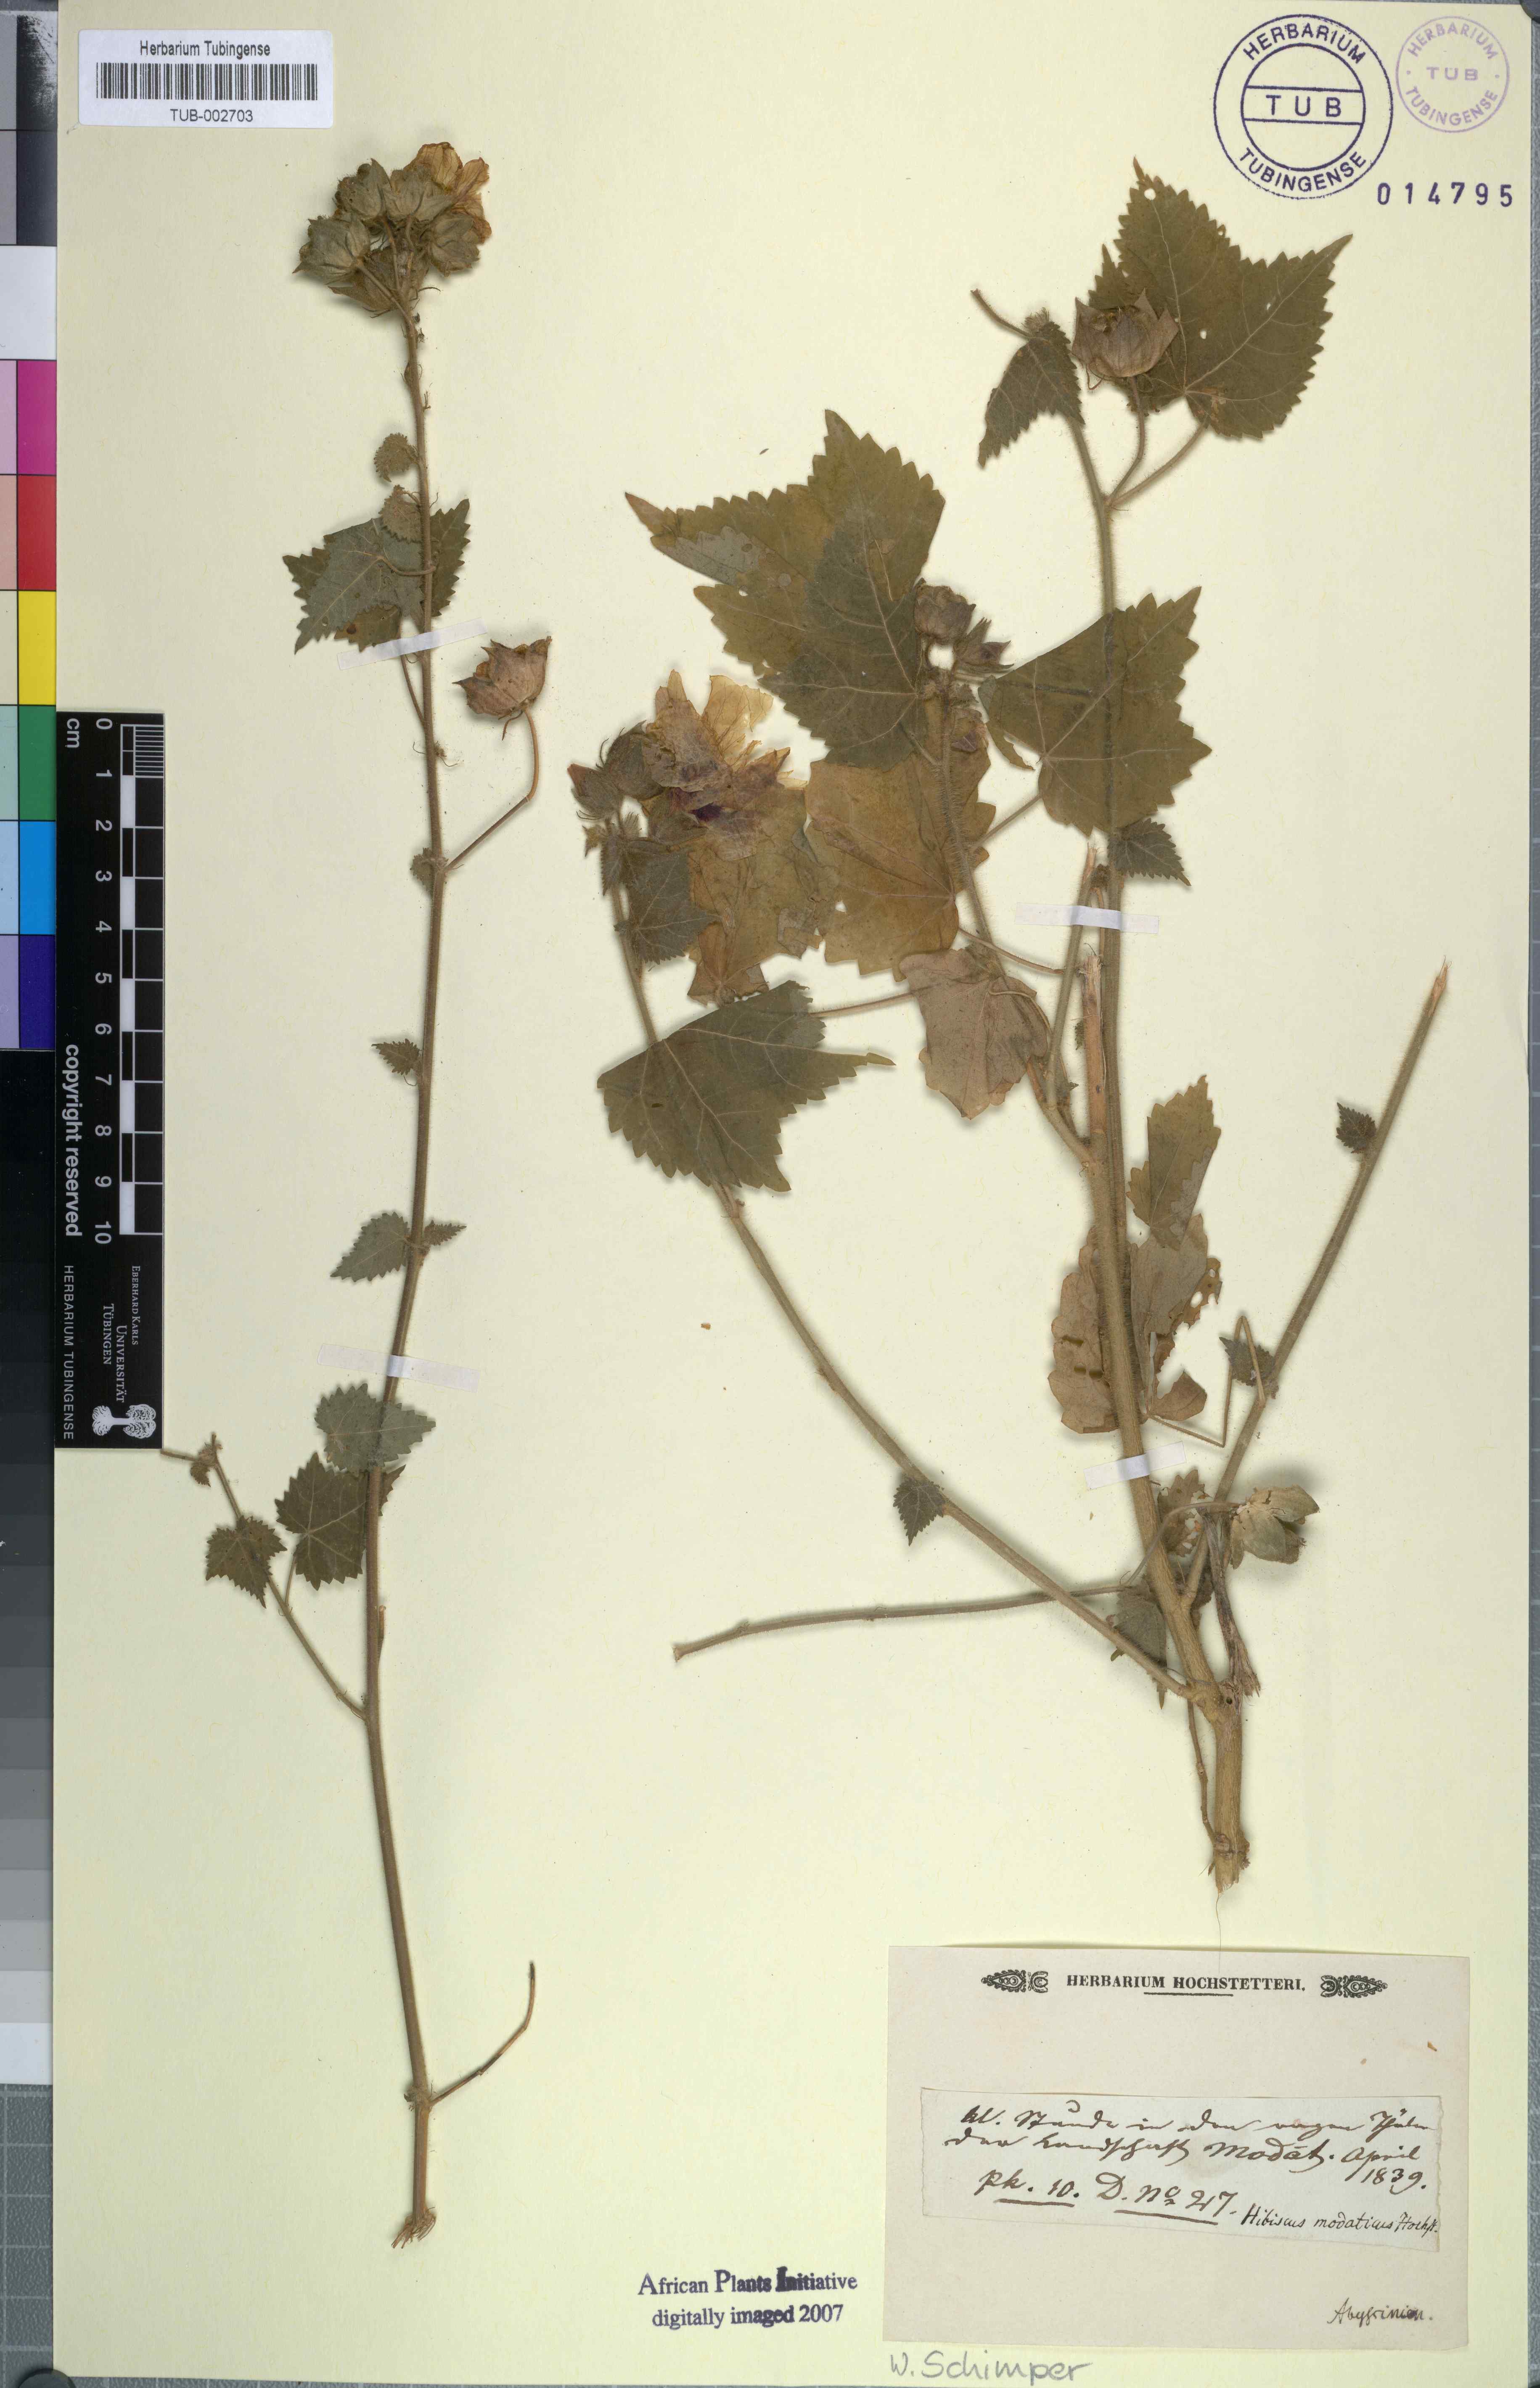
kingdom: Plantae
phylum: Tracheophyta
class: Magnoliopsida
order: Malvales
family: Malvaceae
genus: Hibiscus
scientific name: Hibiscus vitifolius
